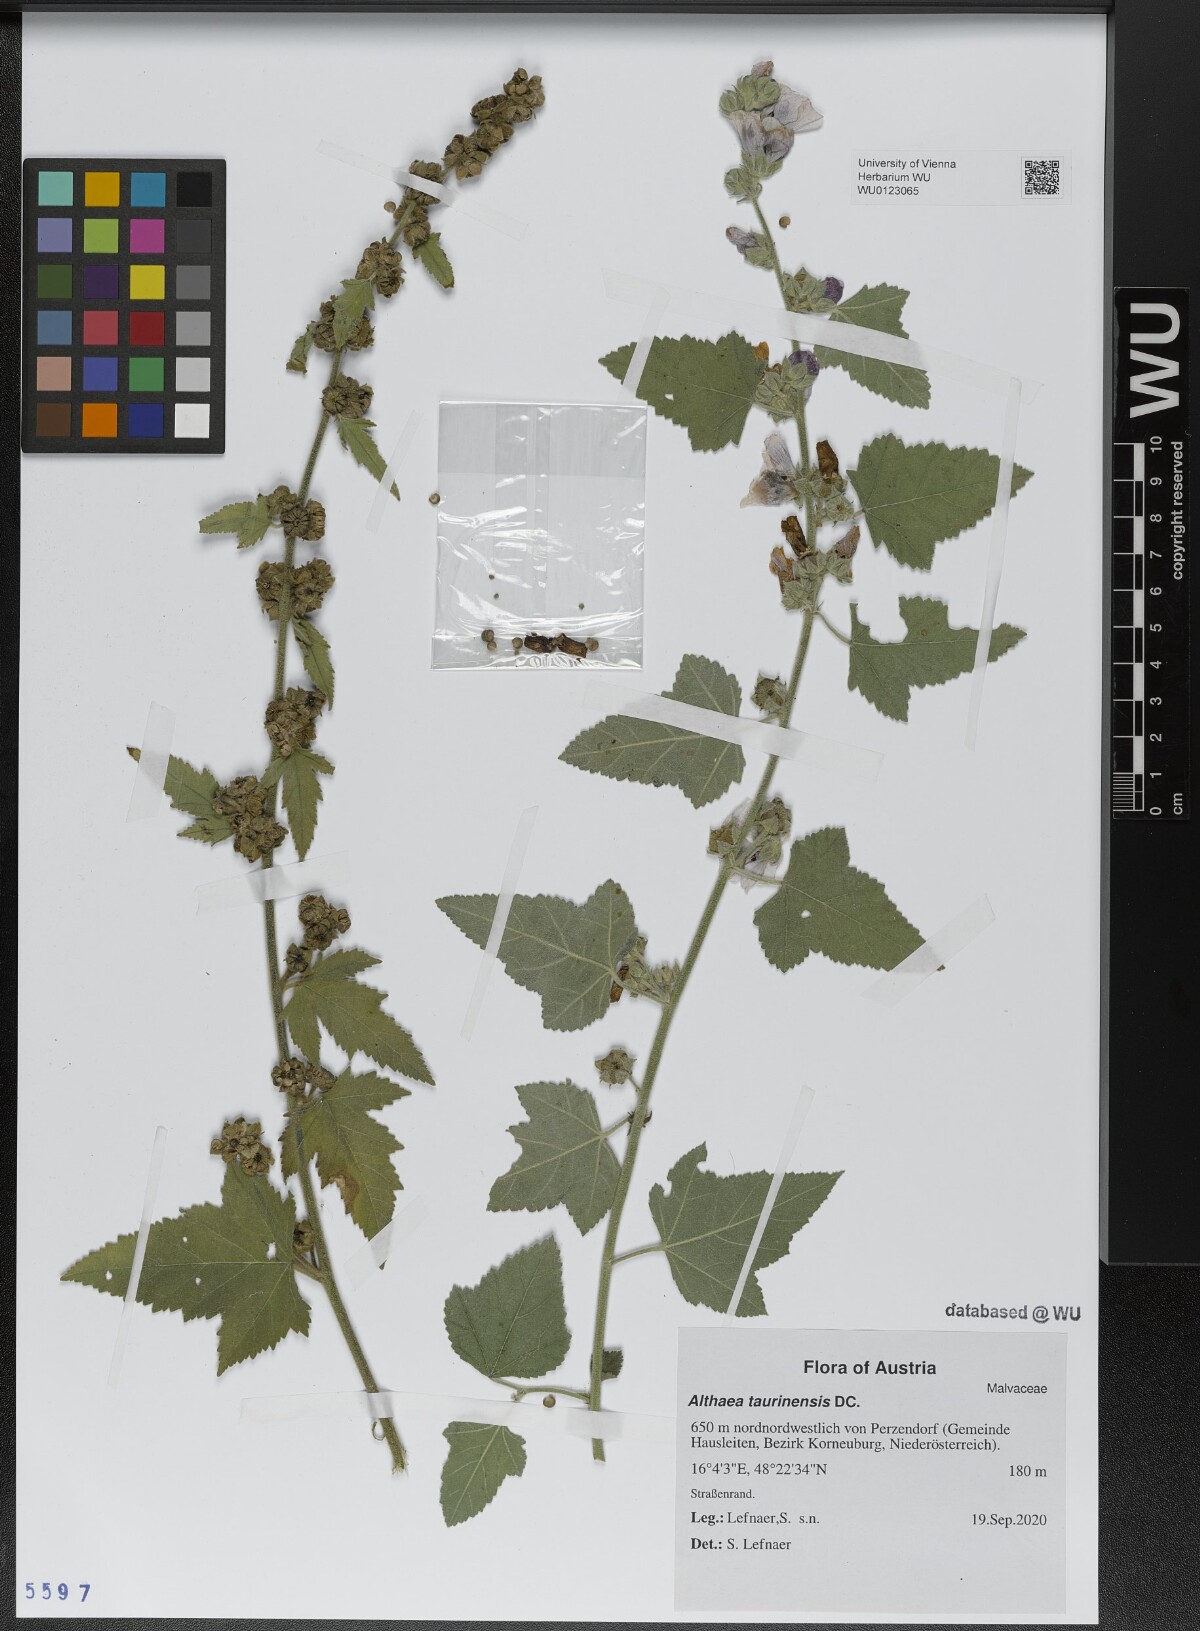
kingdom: Plantae
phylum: Tracheophyta
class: Magnoliopsida
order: Malvales
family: Malvaceae
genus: Althaea
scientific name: Althaea taurinensis
